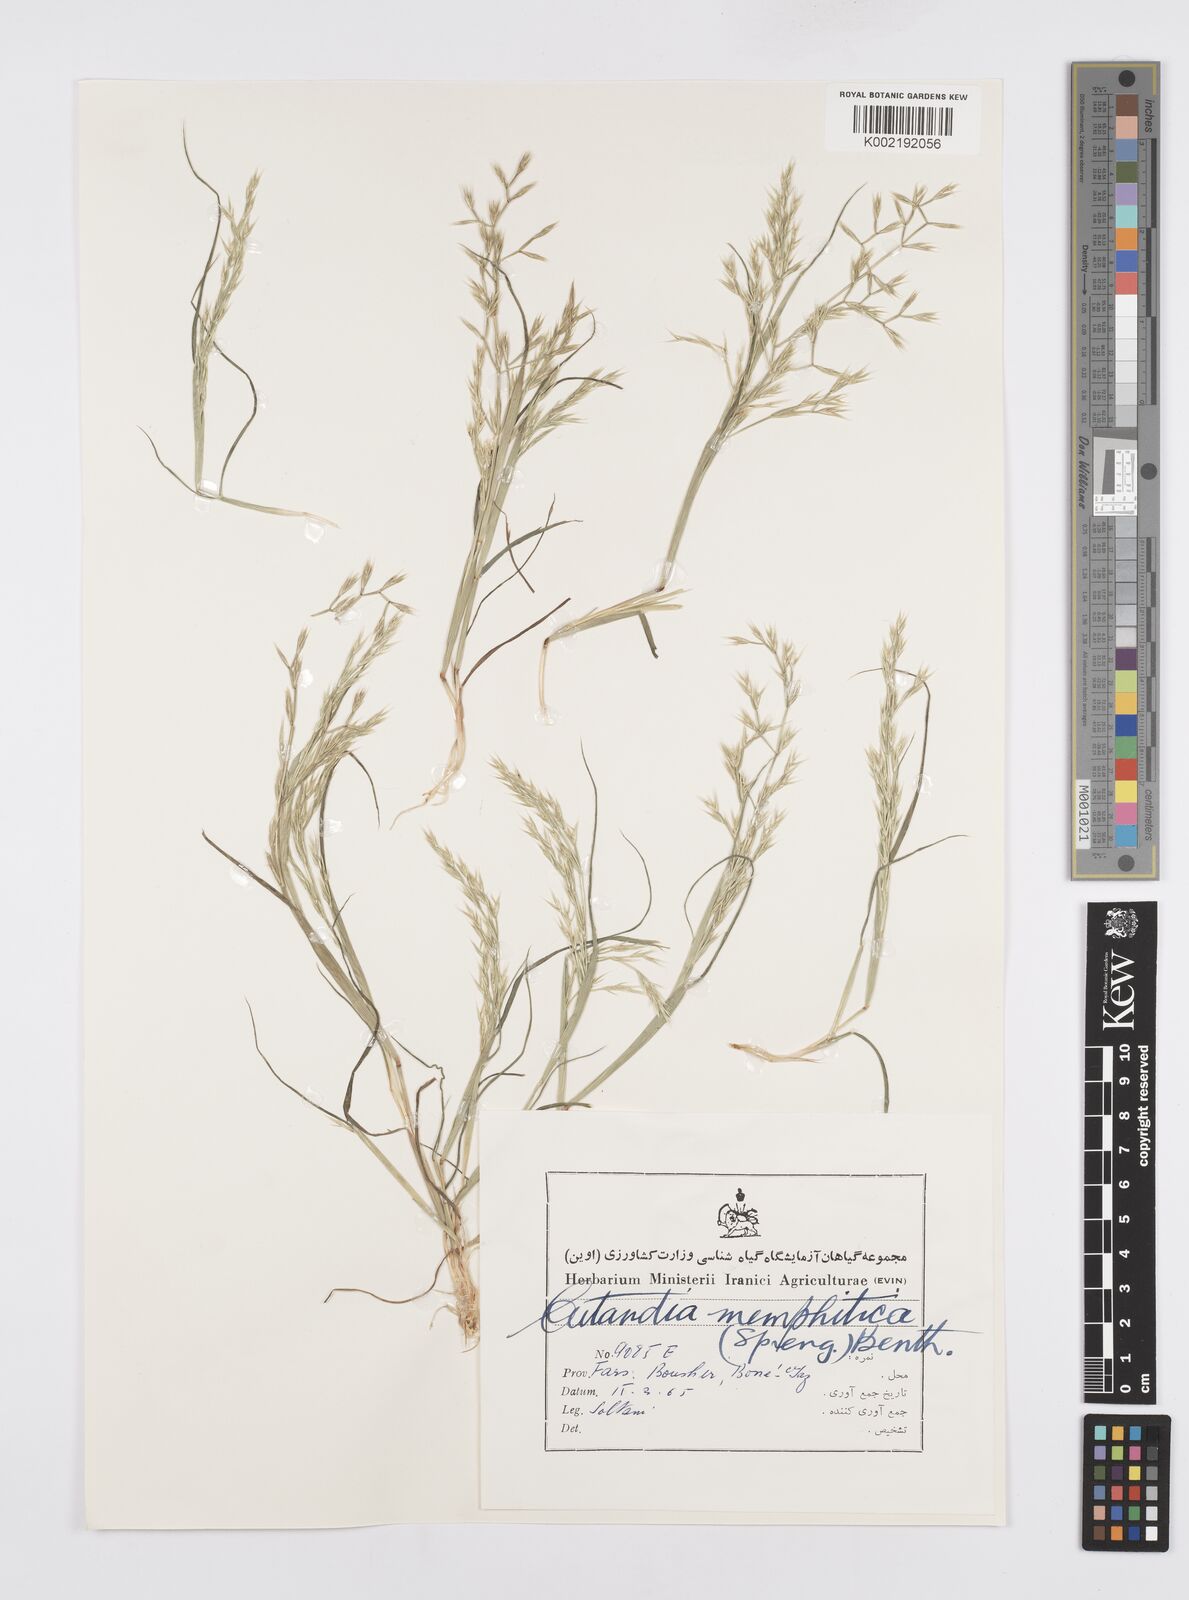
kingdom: Plantae
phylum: Tracheophyta
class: Liliopsida
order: Poales
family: Poaceae
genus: Cutandia
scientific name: Cutandia memphitica
